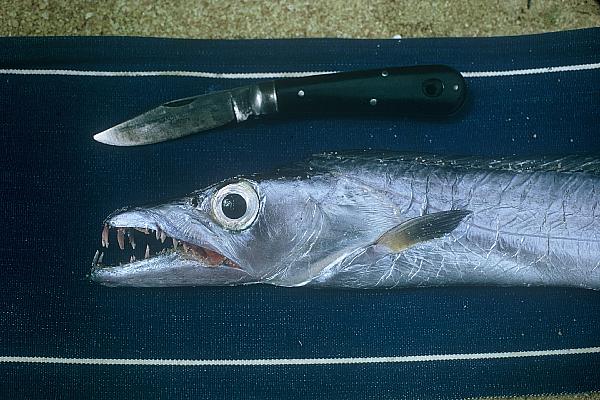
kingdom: Animalia
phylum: Chordata
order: Perciformes
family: Trichiuridae
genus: Trichiurus
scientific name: Trichiurus lepturus
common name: Largehead hairtail
